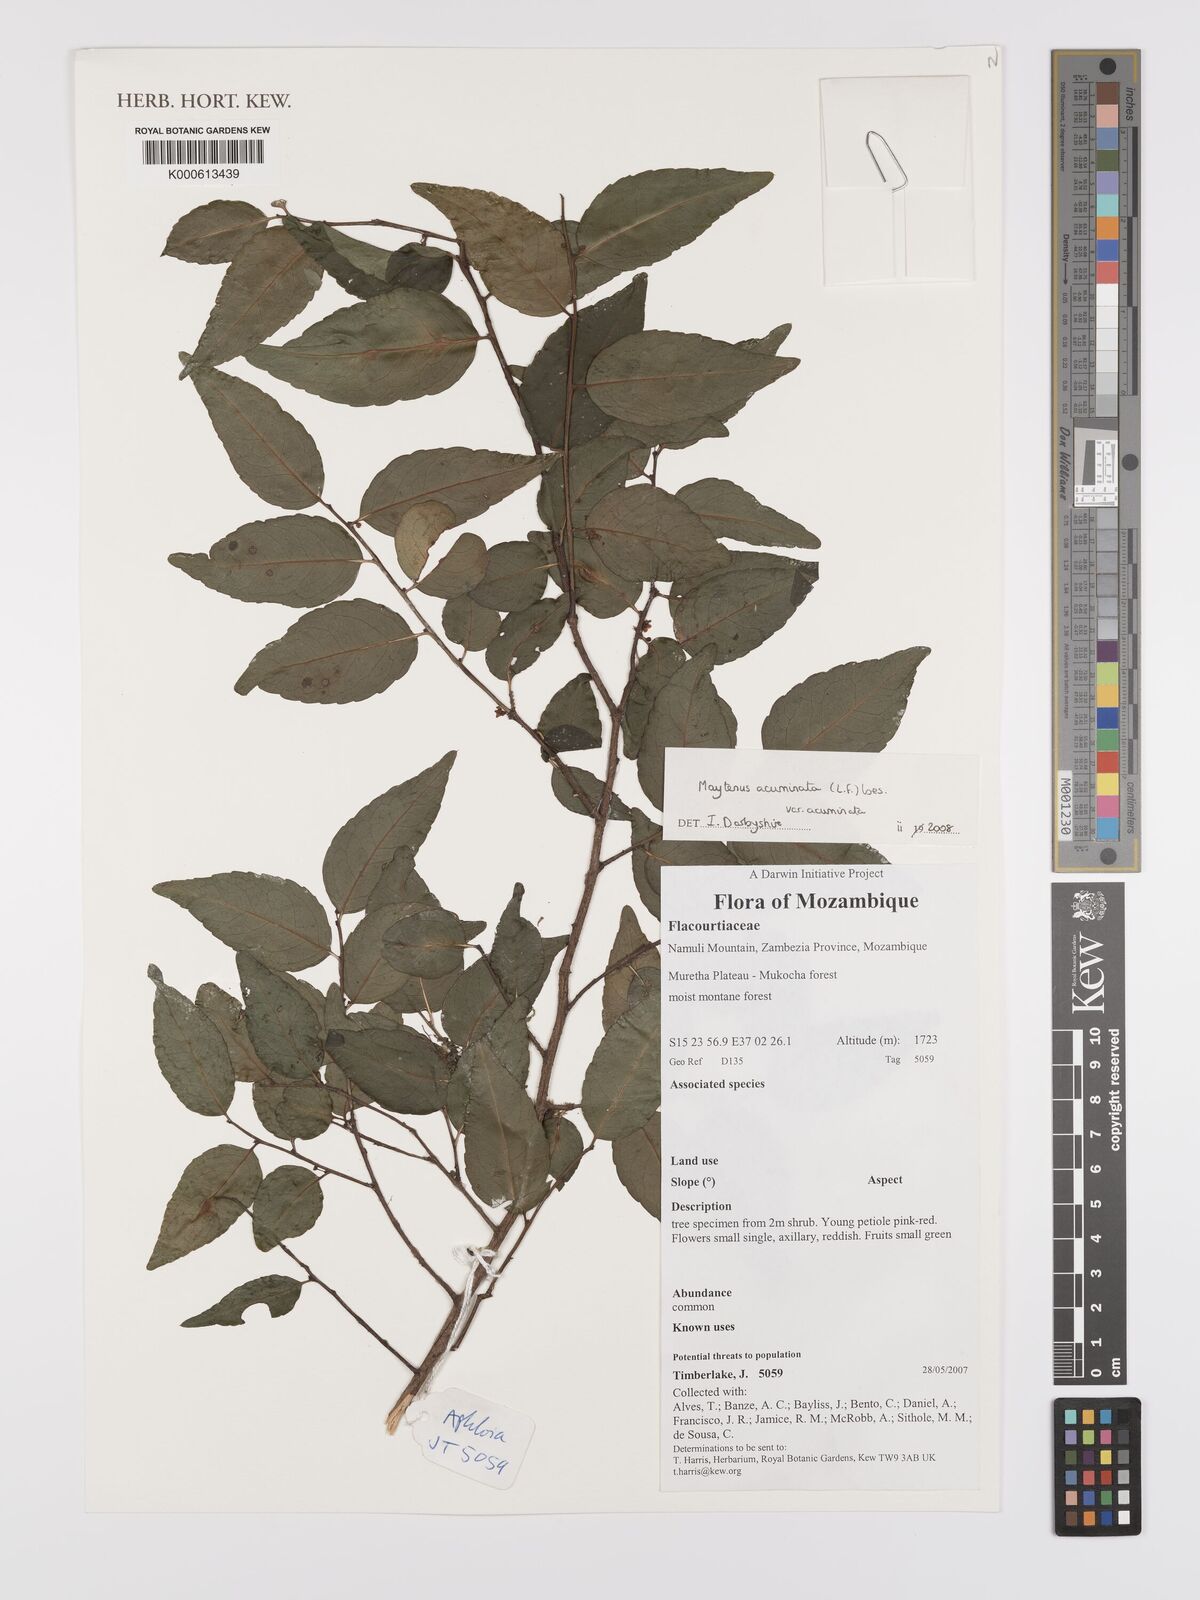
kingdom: Plantae
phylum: Tracheophyta
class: Magnoliopsida
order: Celastrales
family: Celastraceae
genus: Gymnosporia
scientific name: Gymnosporia acuminata
